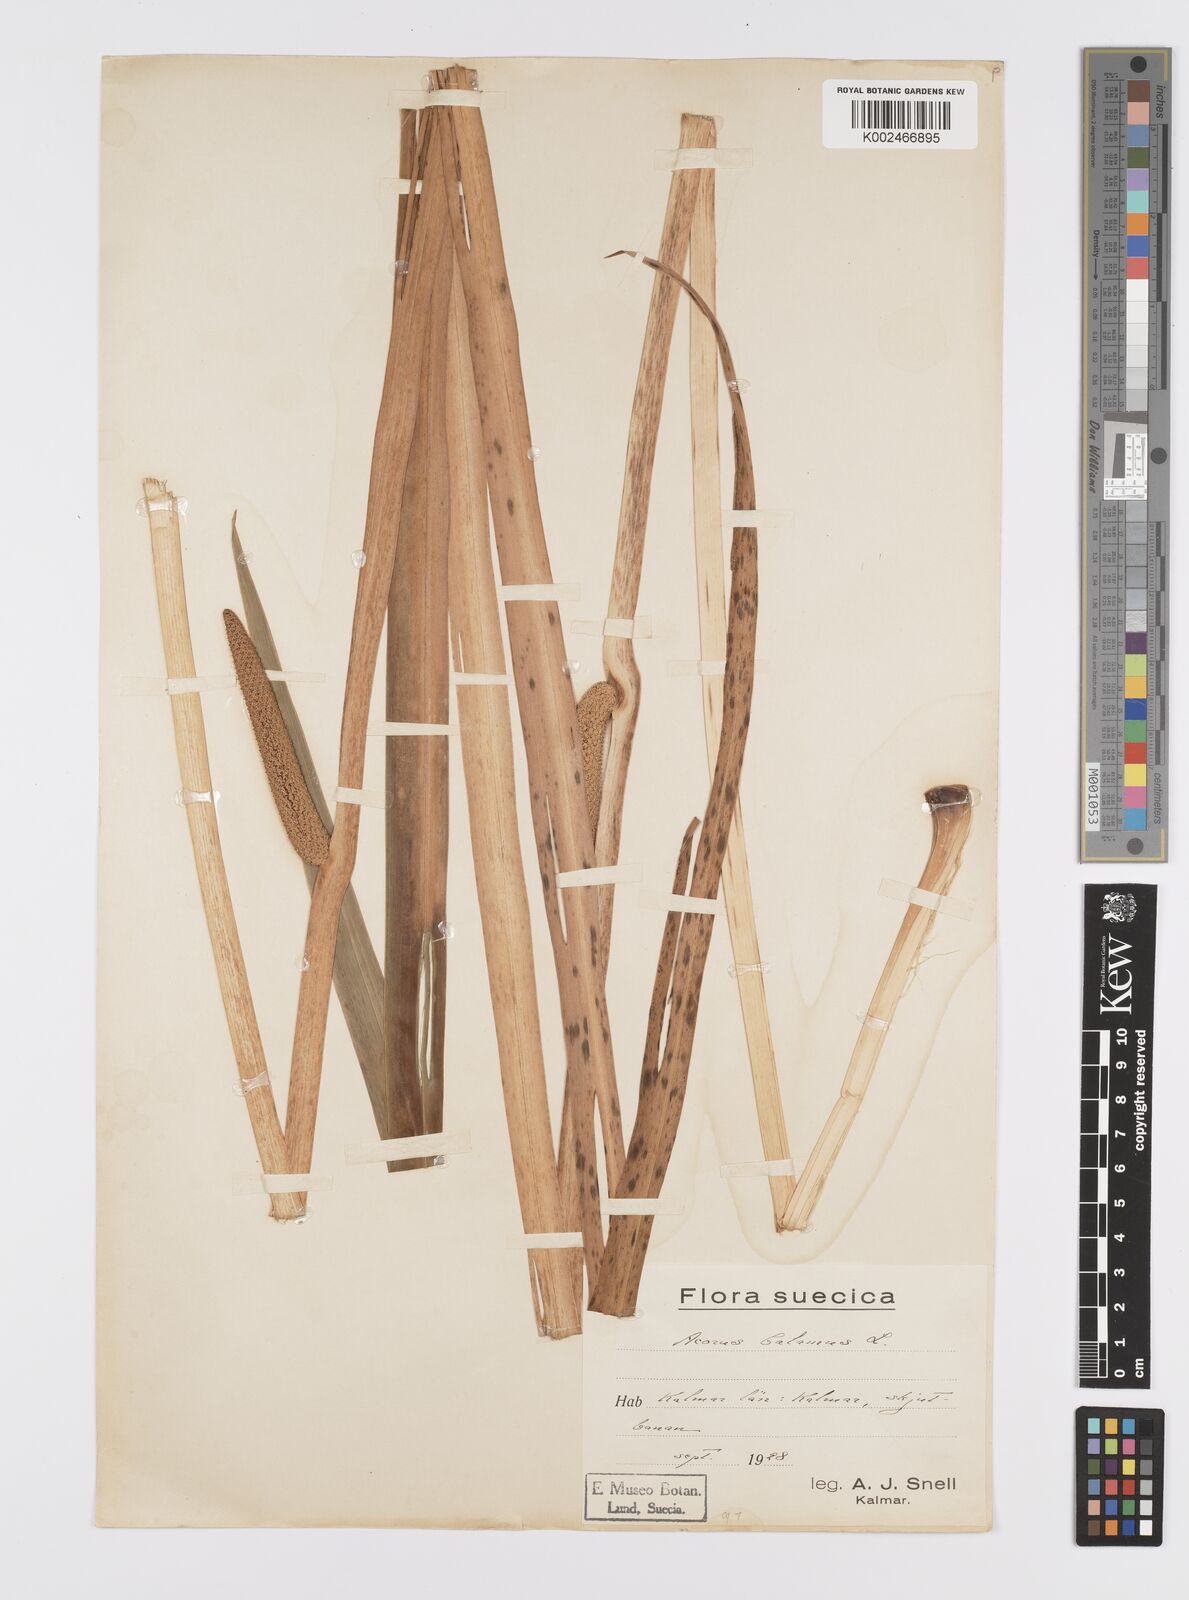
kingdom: Plantae
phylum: Tracheophyta
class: Liliopsida
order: Acorales
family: Acoraceae
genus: Acorus
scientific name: Acorus calamus
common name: Sweet-flag
